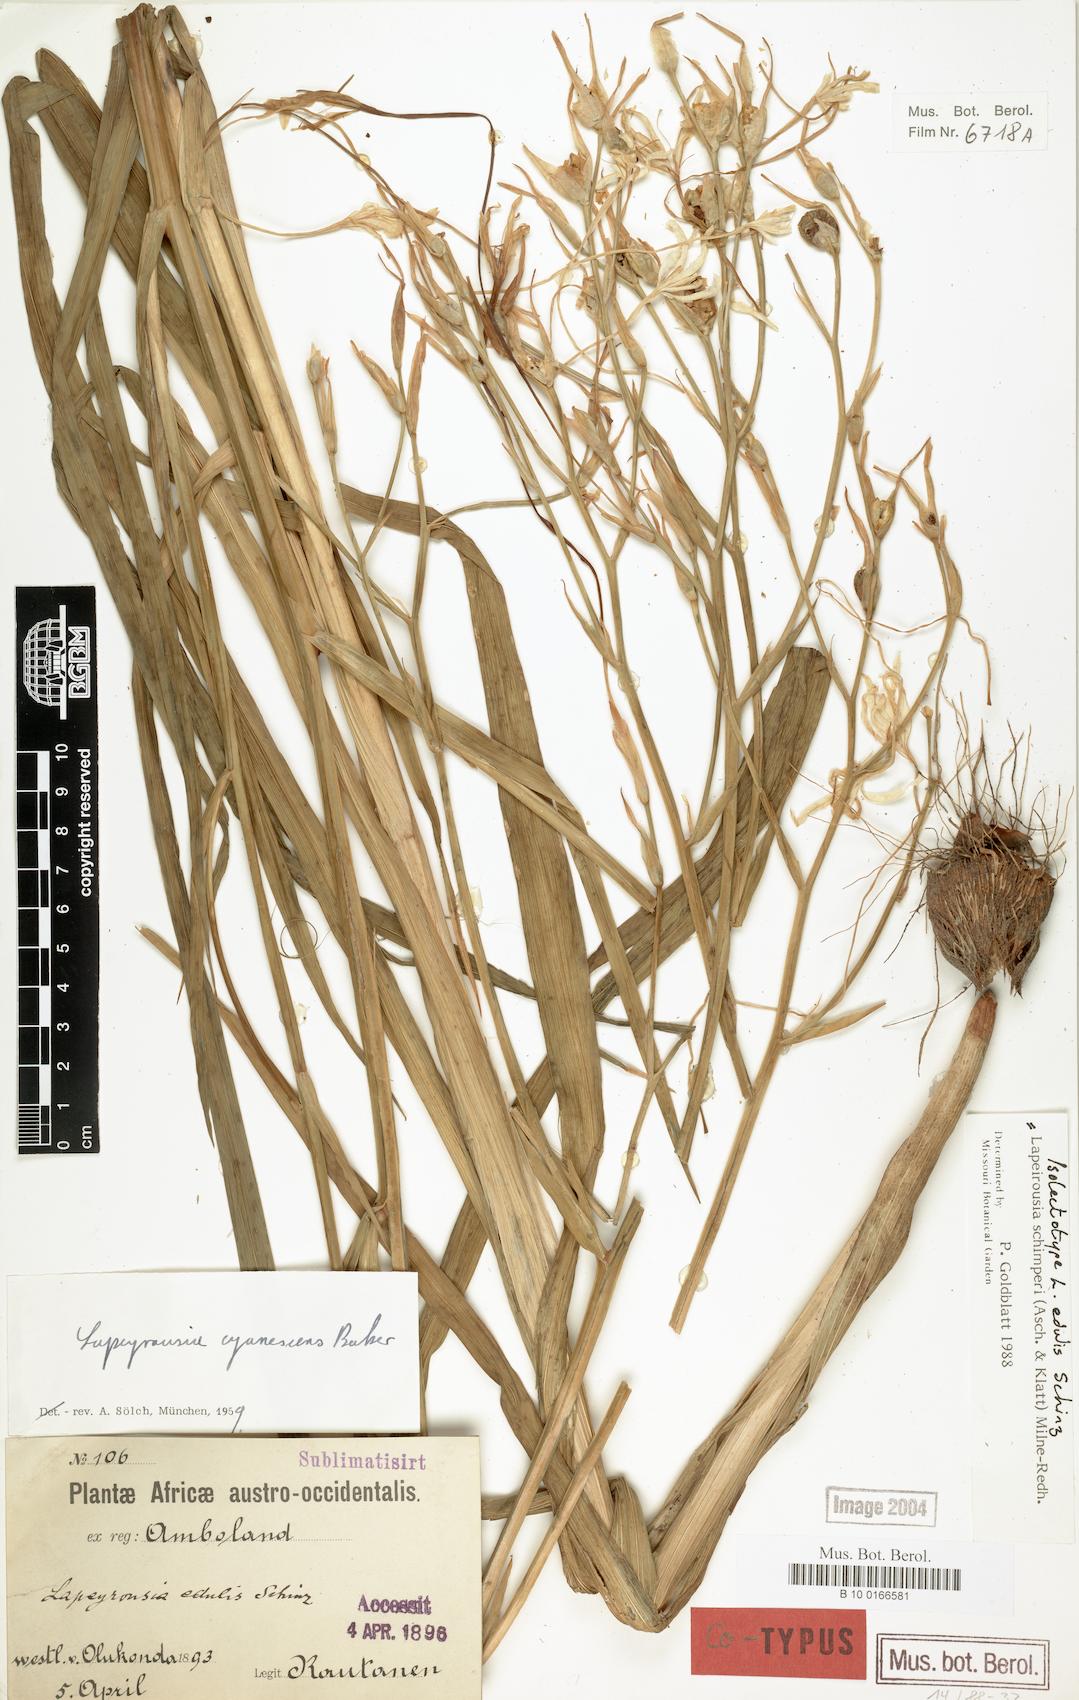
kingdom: Plantae
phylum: Tracheophyta
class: Liliopsida
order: Asparagales
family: Iridaceae
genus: Afrosolen
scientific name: Afrosolen schimperi
